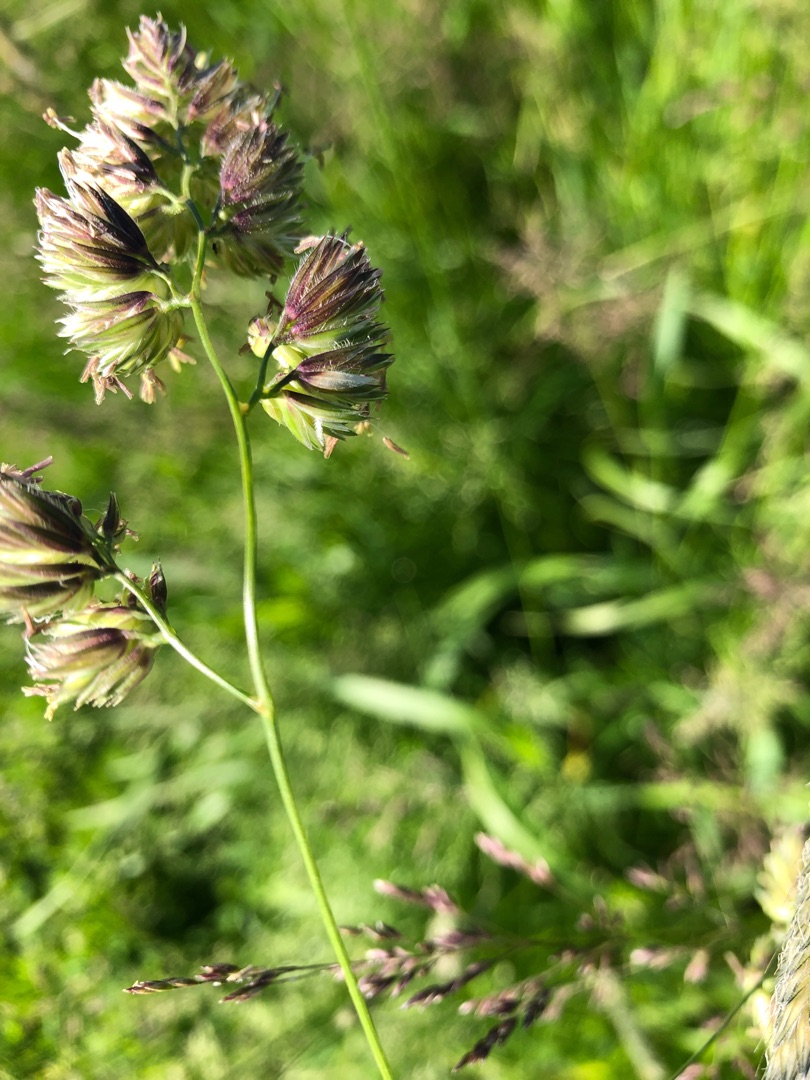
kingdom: Plantae
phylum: Tracheophyta
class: Liliopsida
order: Poales
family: Poaceae
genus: Dactylis
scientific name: Dactylis glomerata
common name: Almindelig hundegræs
